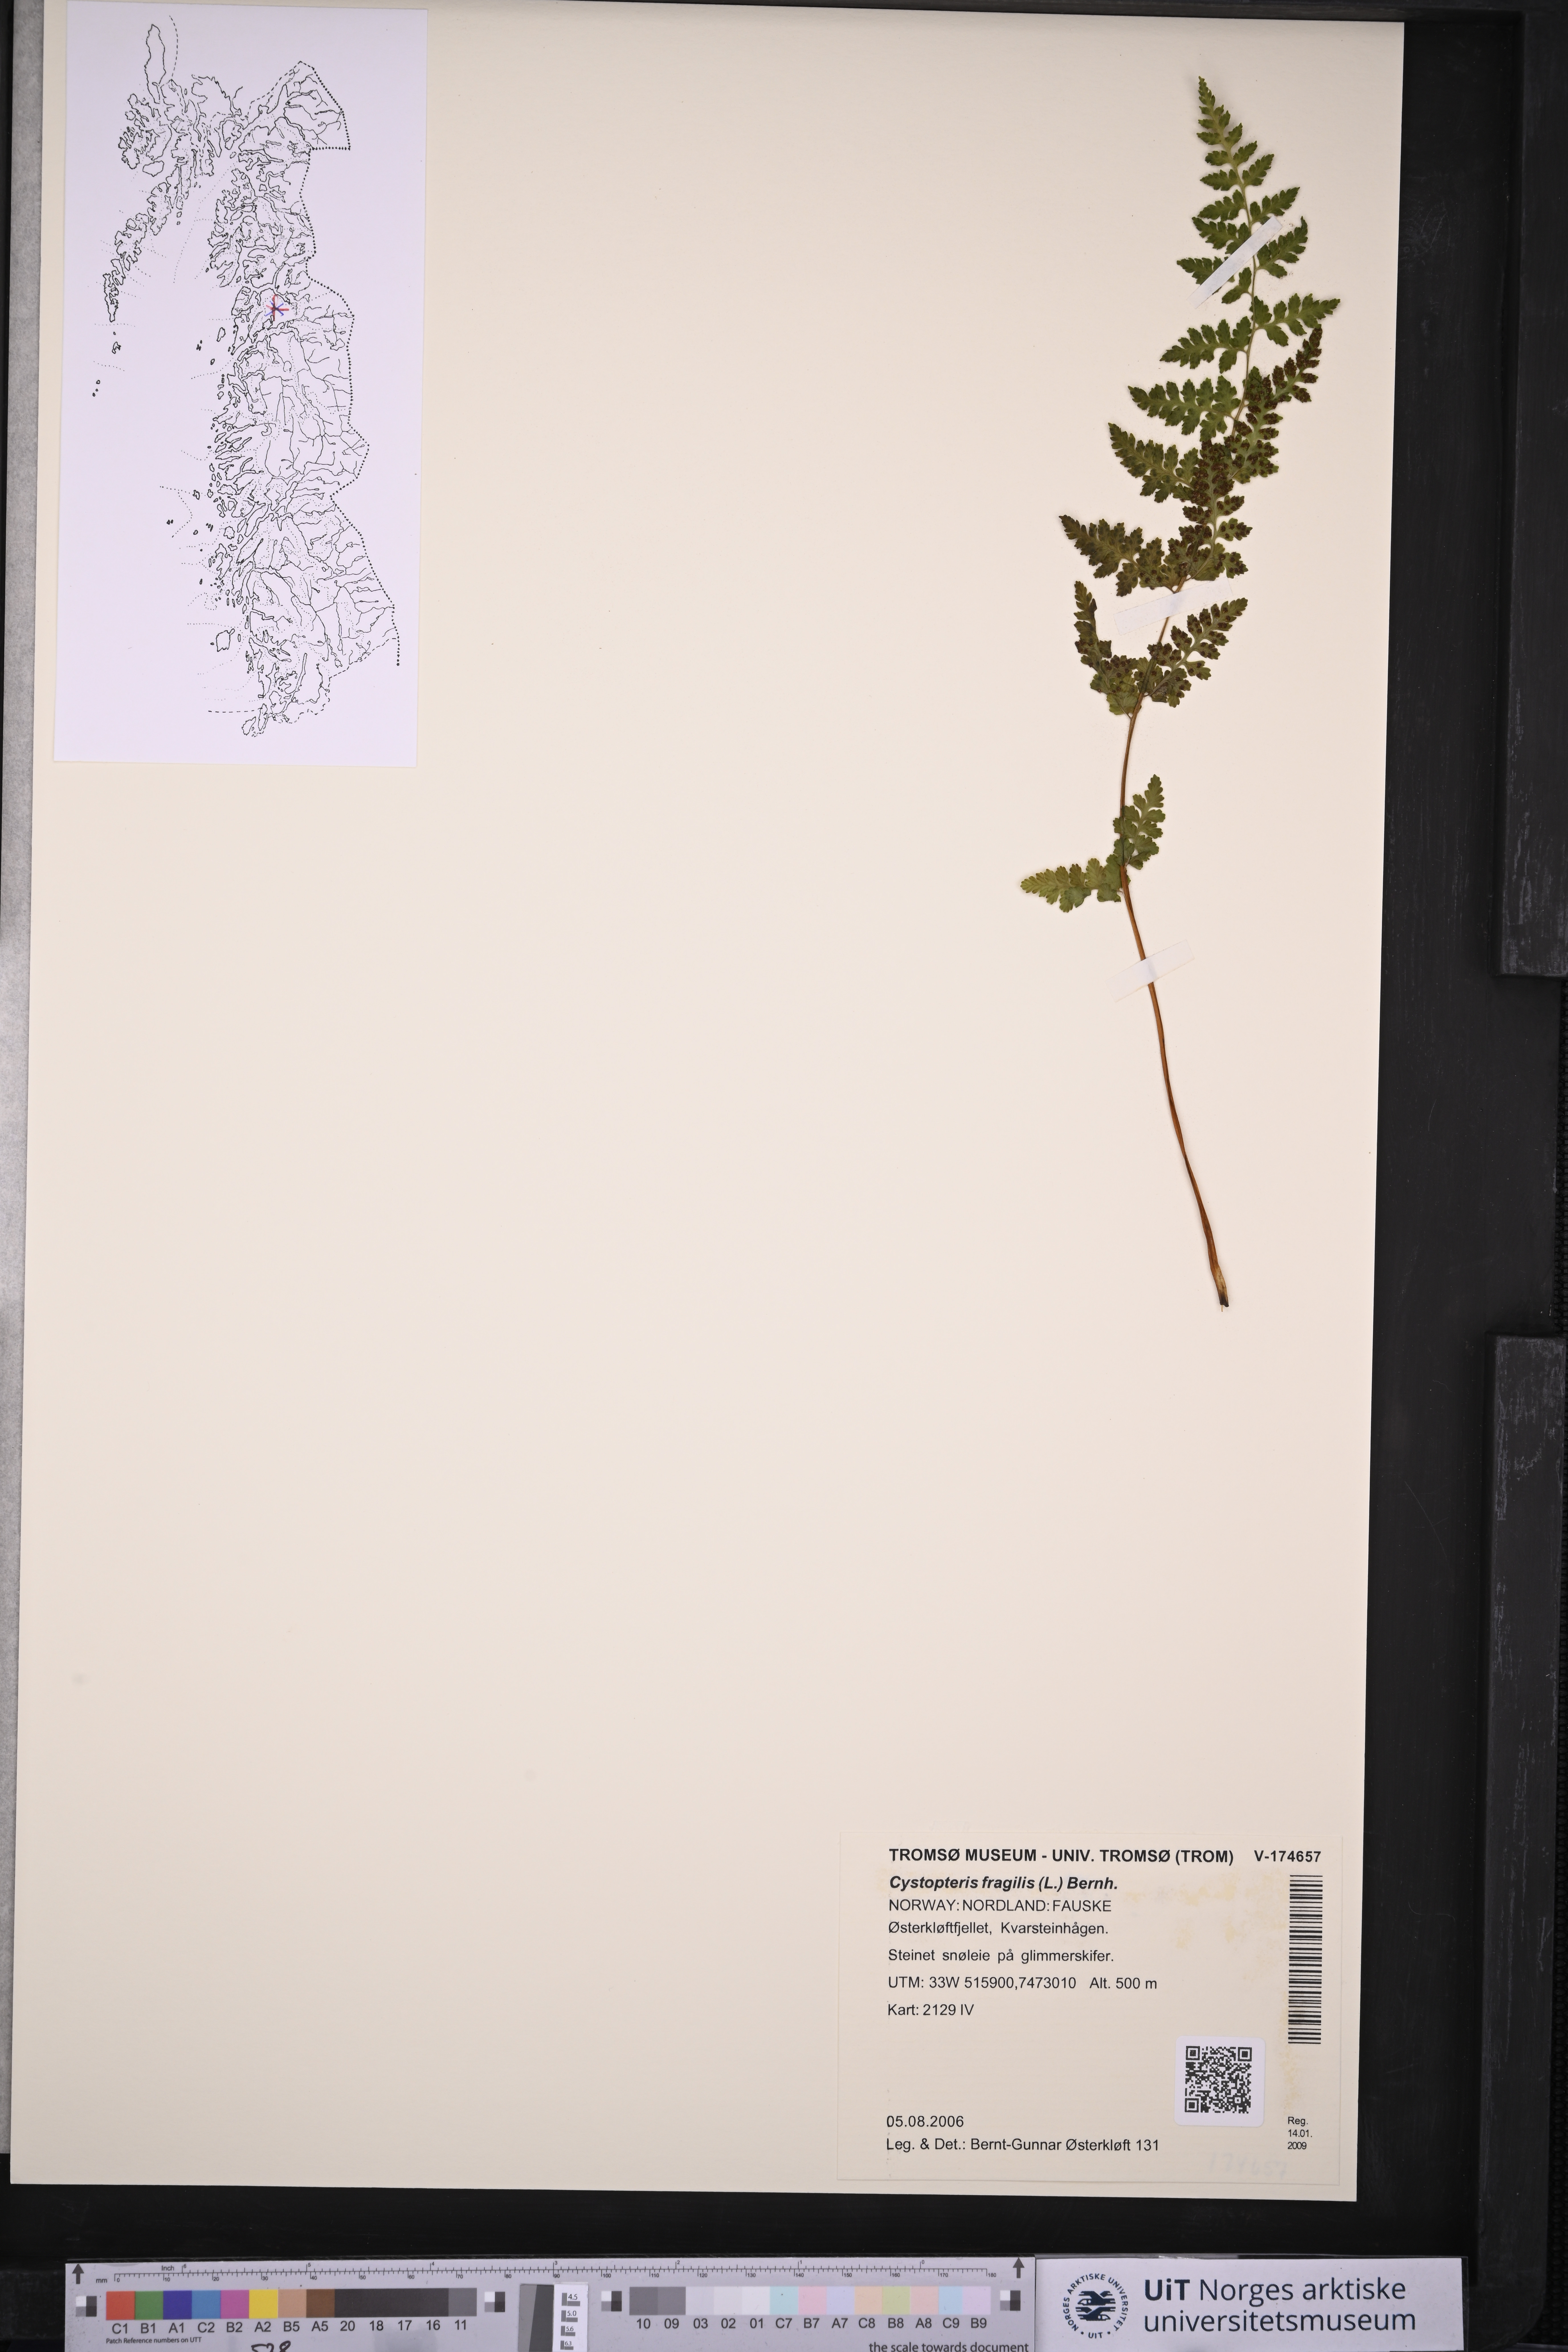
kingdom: Plantae
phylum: Tracheophyta
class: Polypodiopsida
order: Polypodiales
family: Cystopteridaceae
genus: Cystopteris
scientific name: Cystopteris fragilis
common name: Brittle bladder fern
